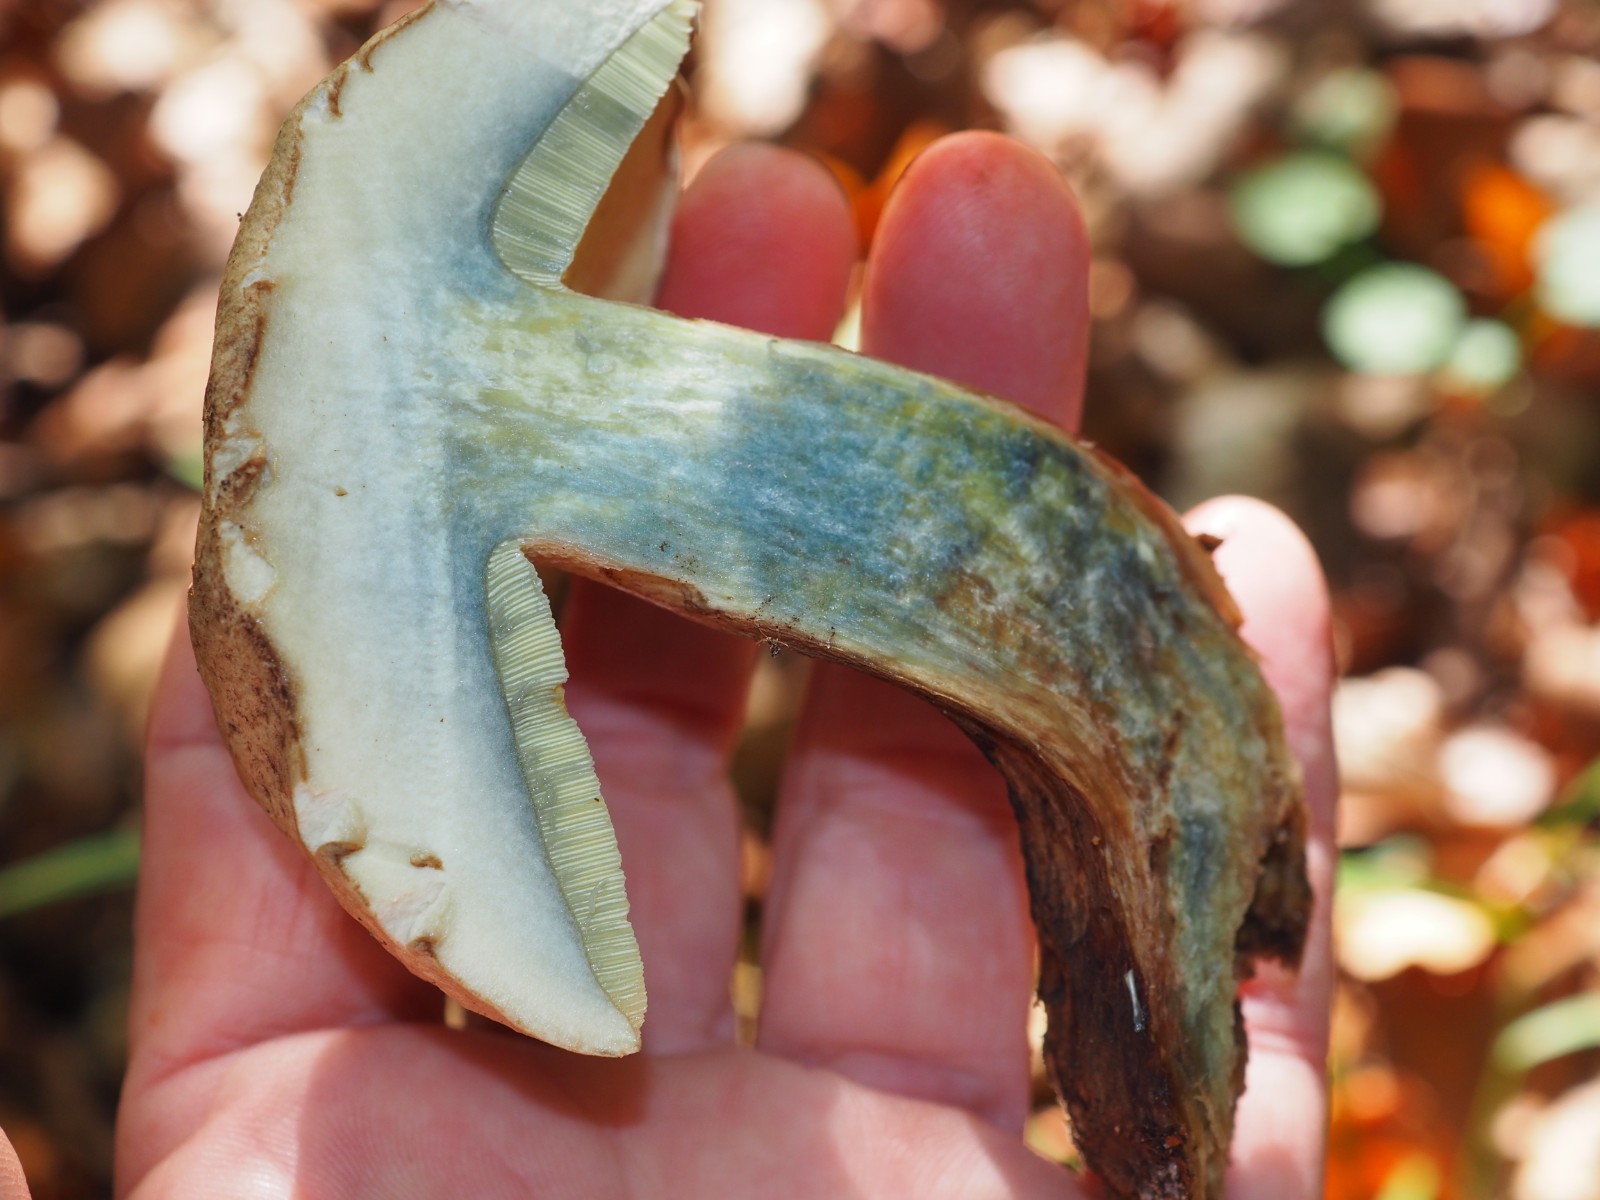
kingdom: Fungi
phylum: Basidiomycota
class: Agaricomycetes
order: Boletales
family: Boletaceae
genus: Caloboletus
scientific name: Caloboletus calopus
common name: skønfodet rørhat
